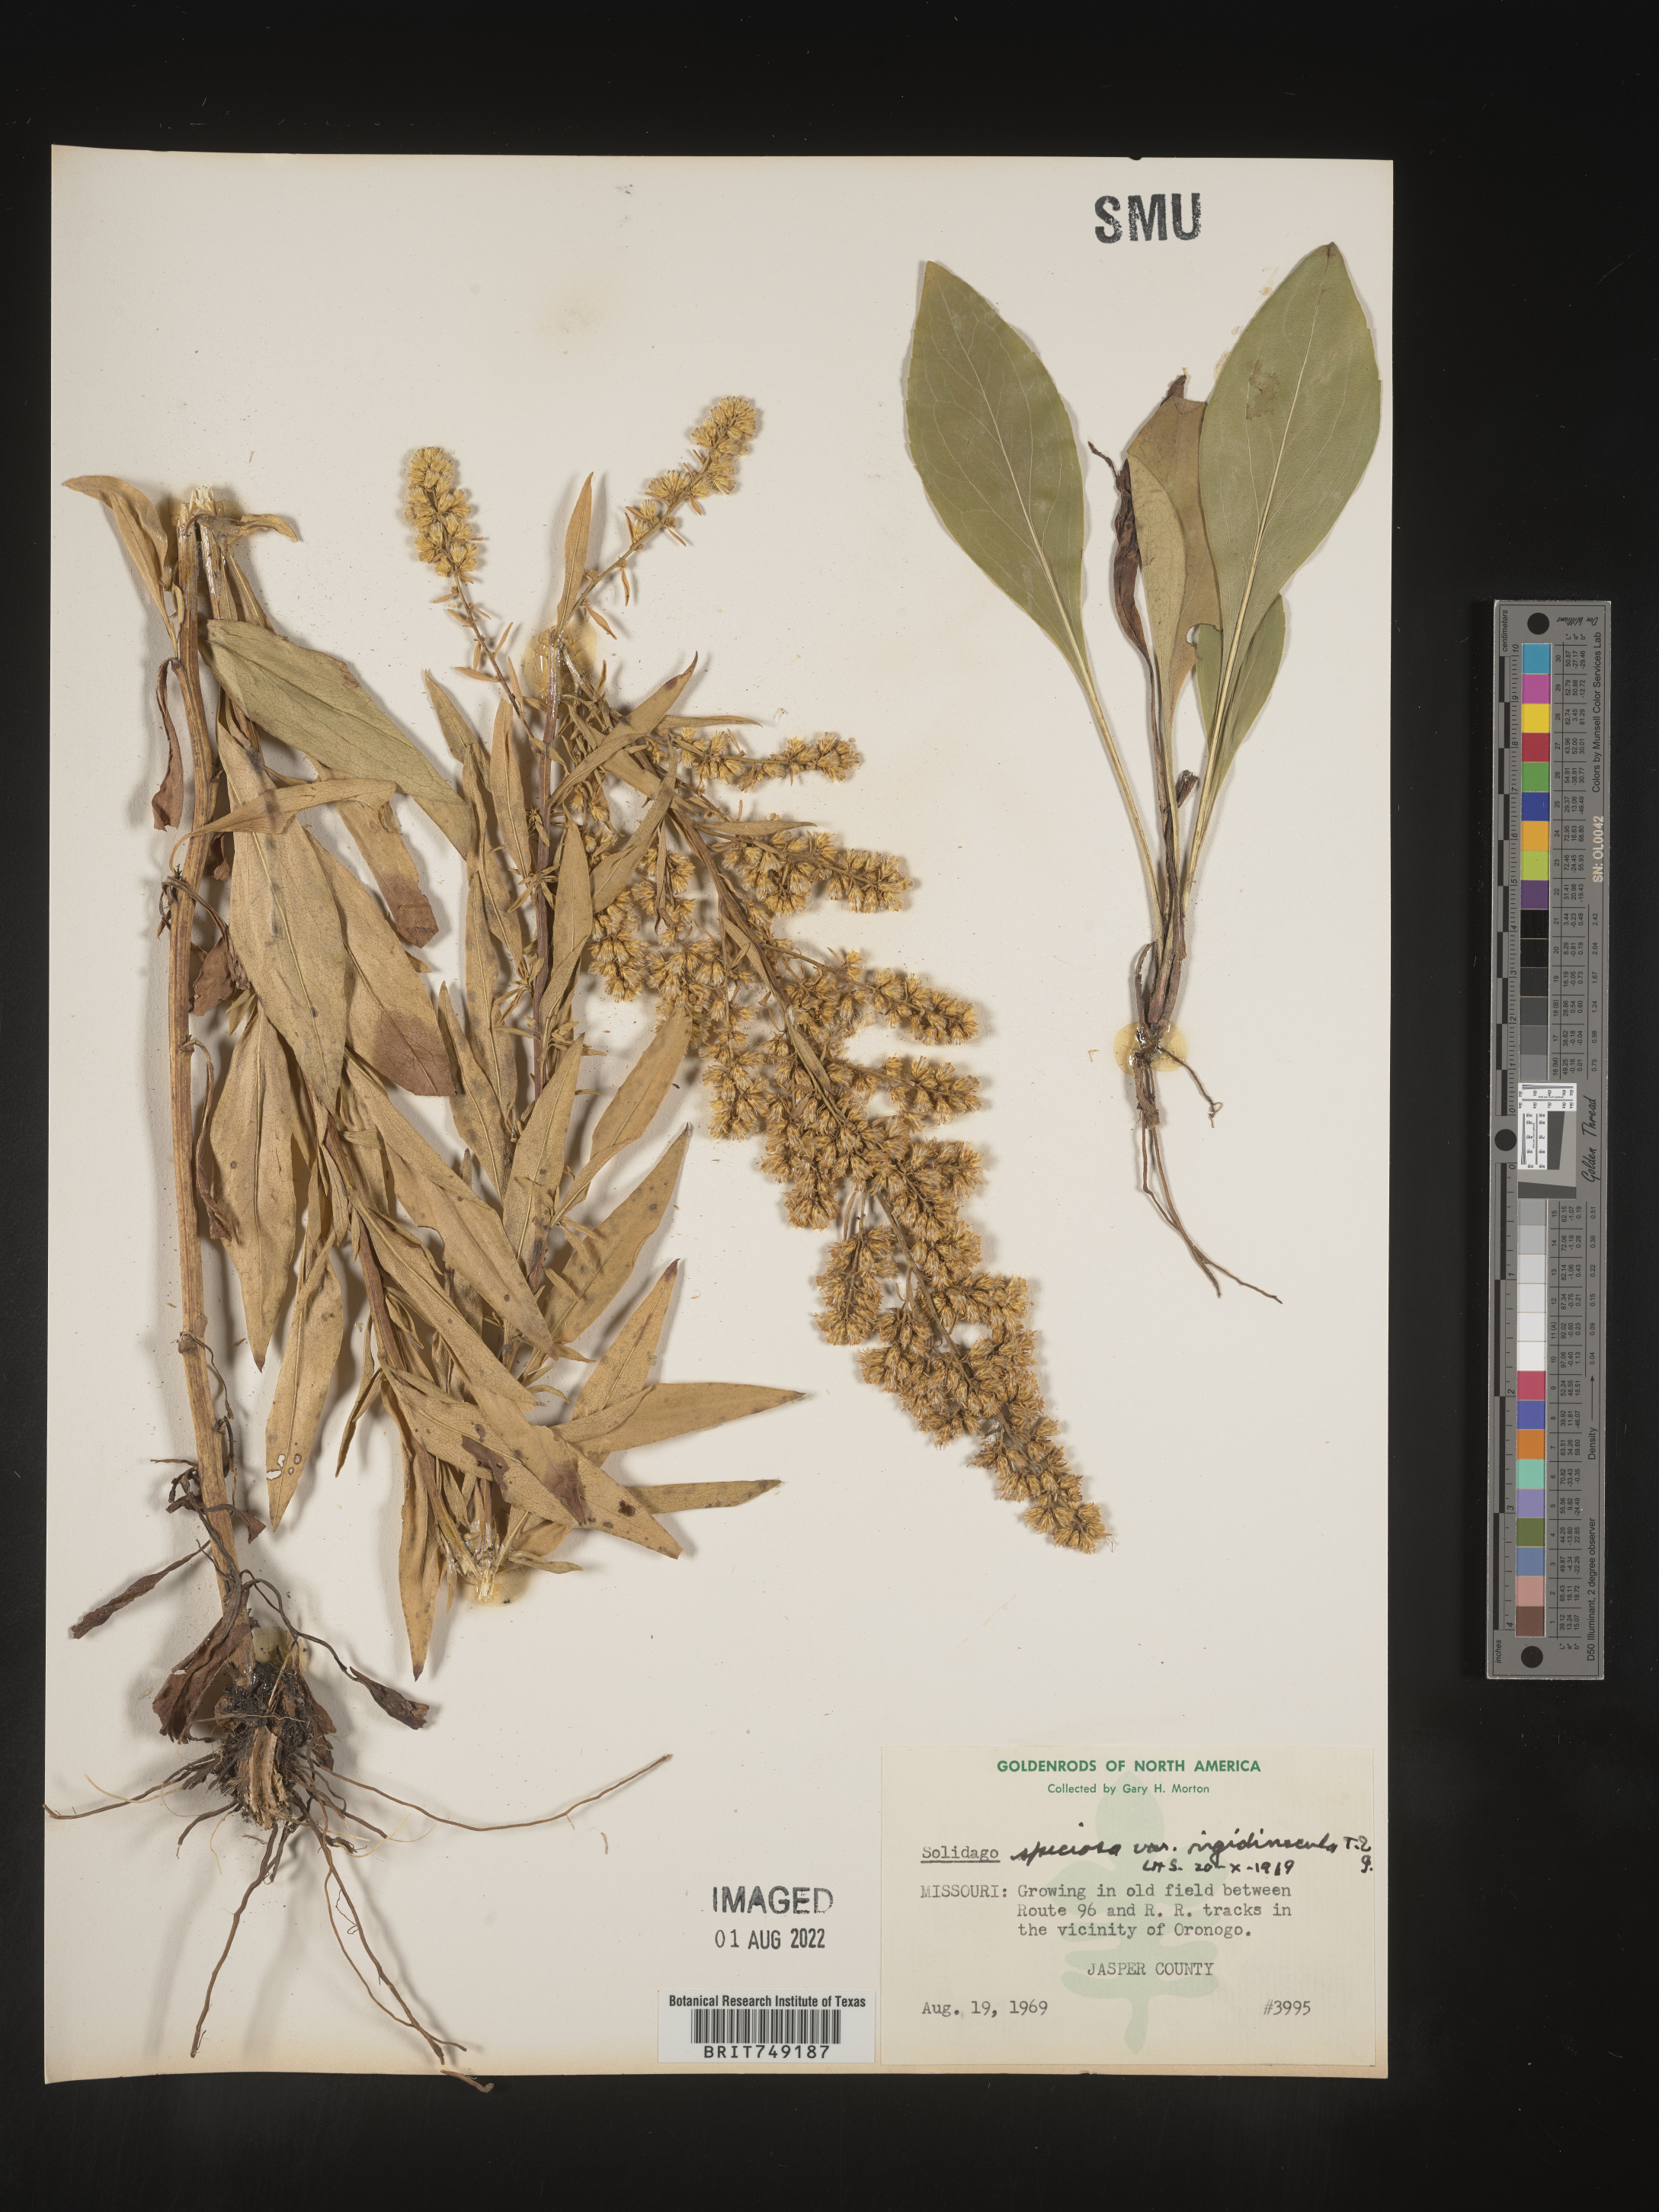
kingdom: Plantae
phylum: Tracheophyta
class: Magnoliopsida
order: Asterales
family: Asteraceae
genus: Solidago
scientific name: Solidago speciosa
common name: Showy goldenrod
